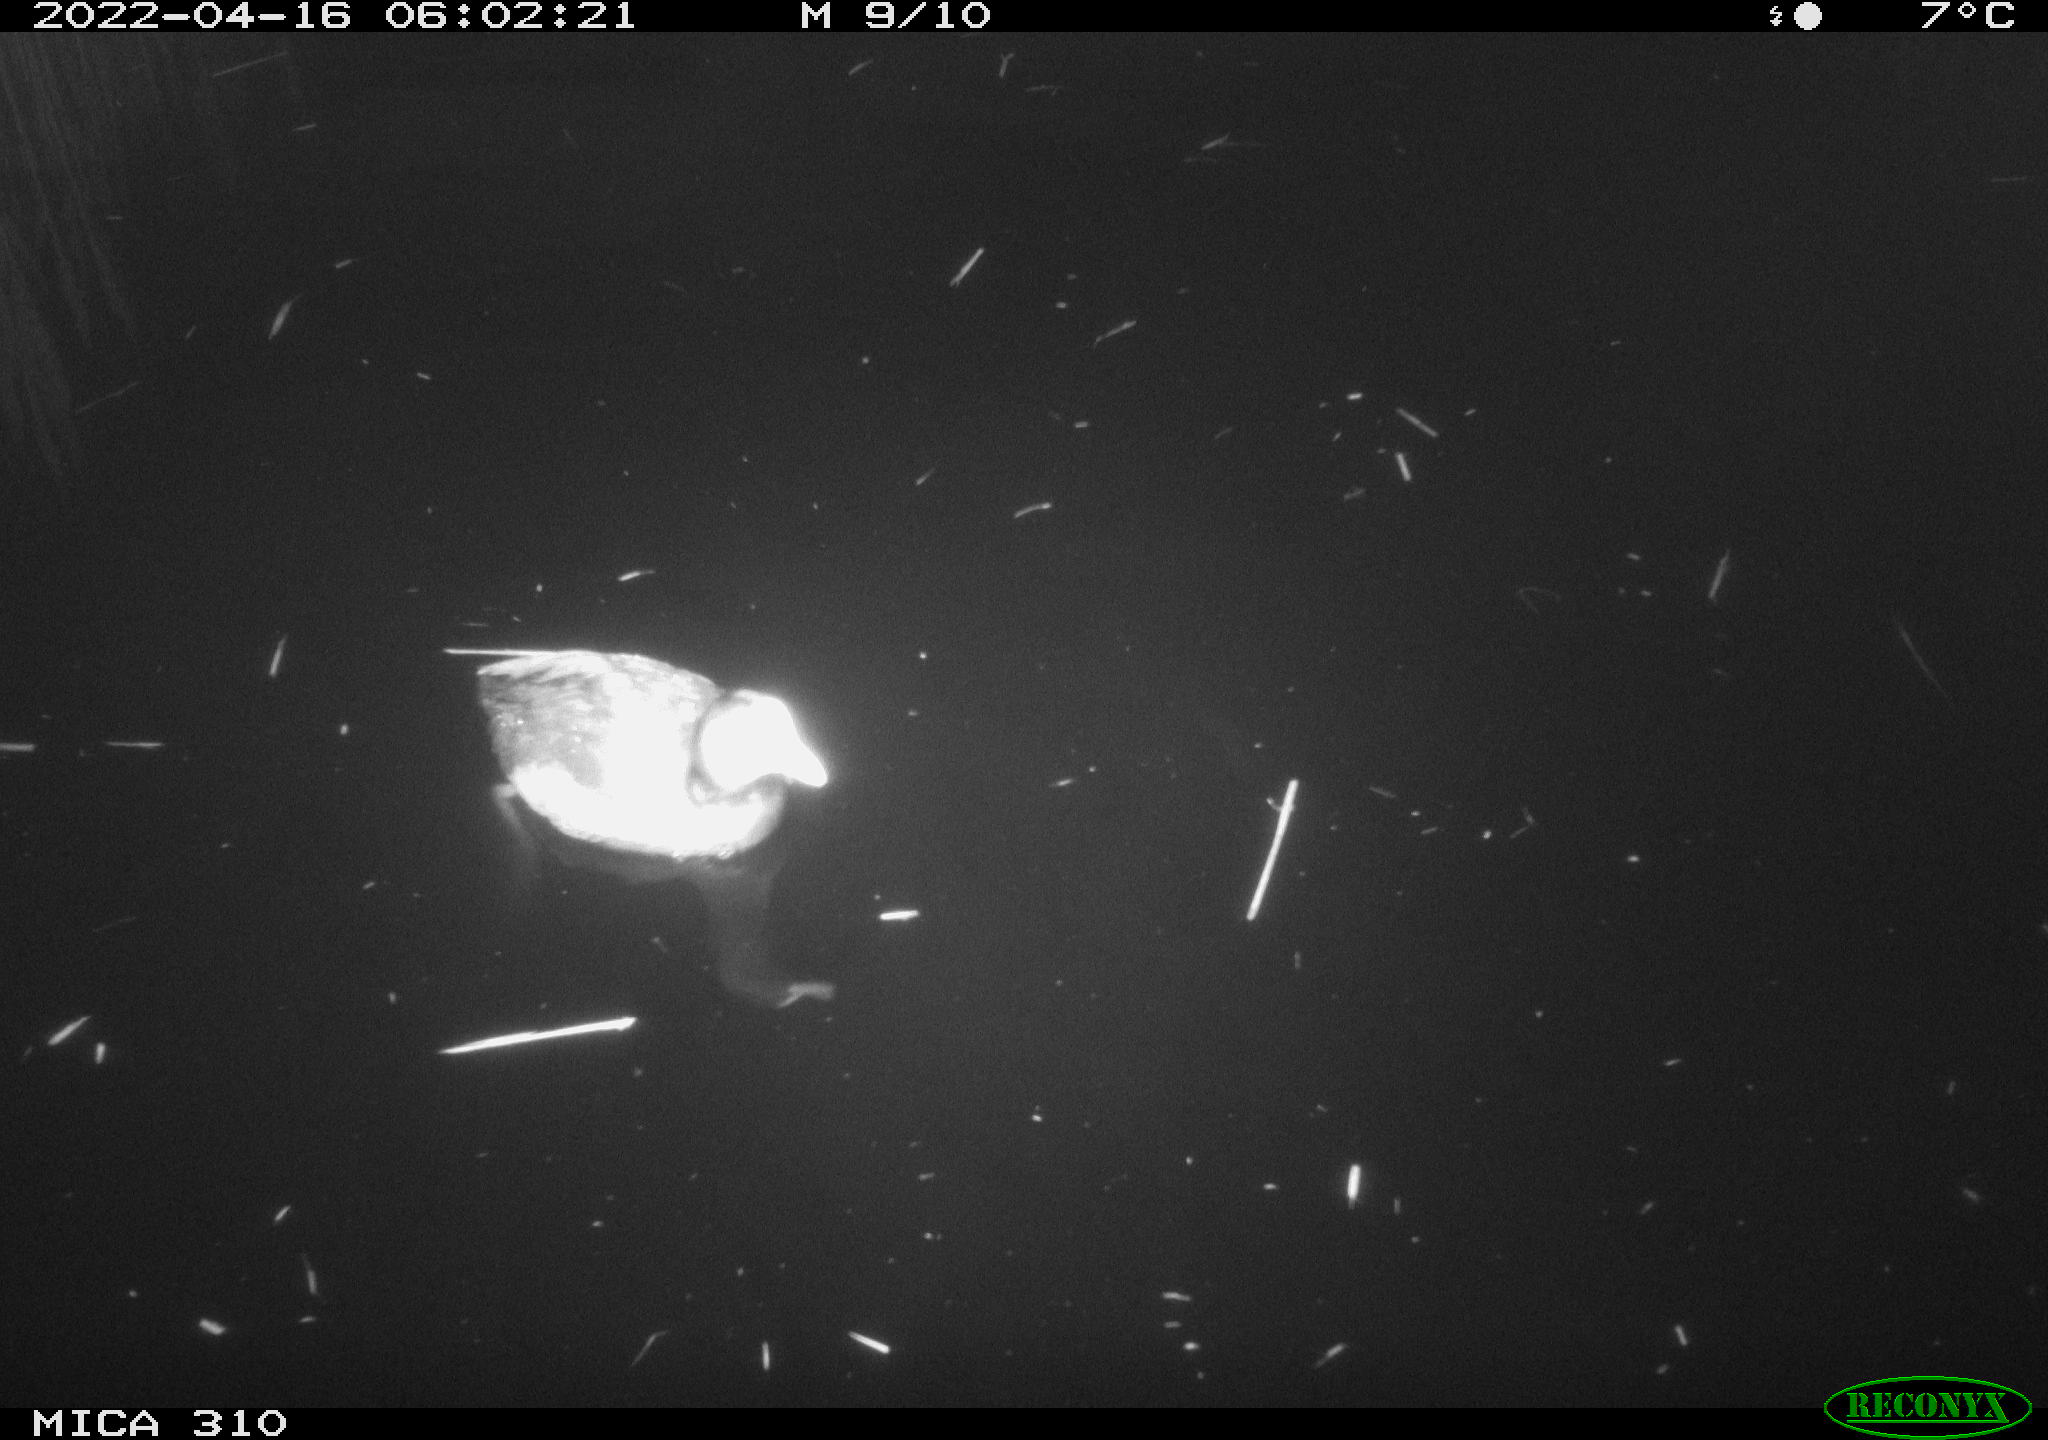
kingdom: Animalia
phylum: Chordata
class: Aves
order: Gruiformes
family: Rallidae
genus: Fulica
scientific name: Fulica atra
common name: Eurasian coot
